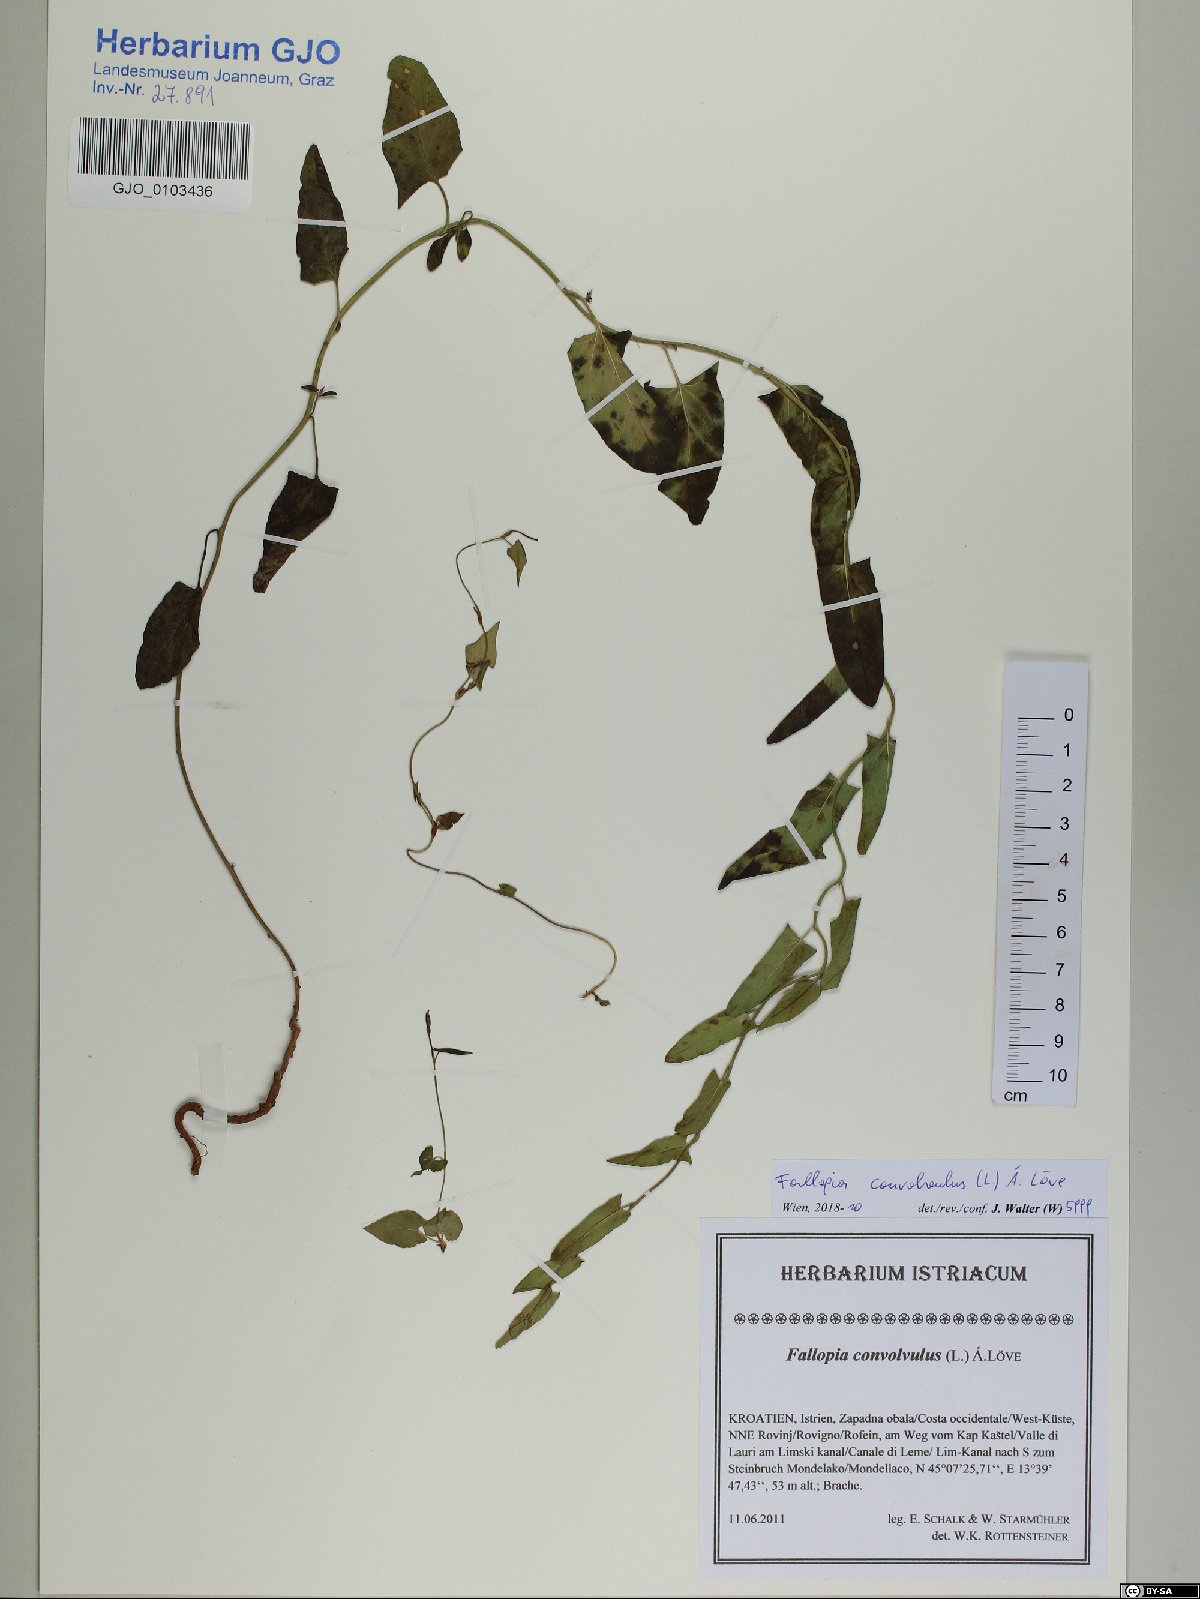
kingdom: Plantae
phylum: Tracheophyta
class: Magnoliopsida
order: Caryophyllales
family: Polygonaceae
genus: Fallopia
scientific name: Fallopia convolvulus
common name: Black bindweed
